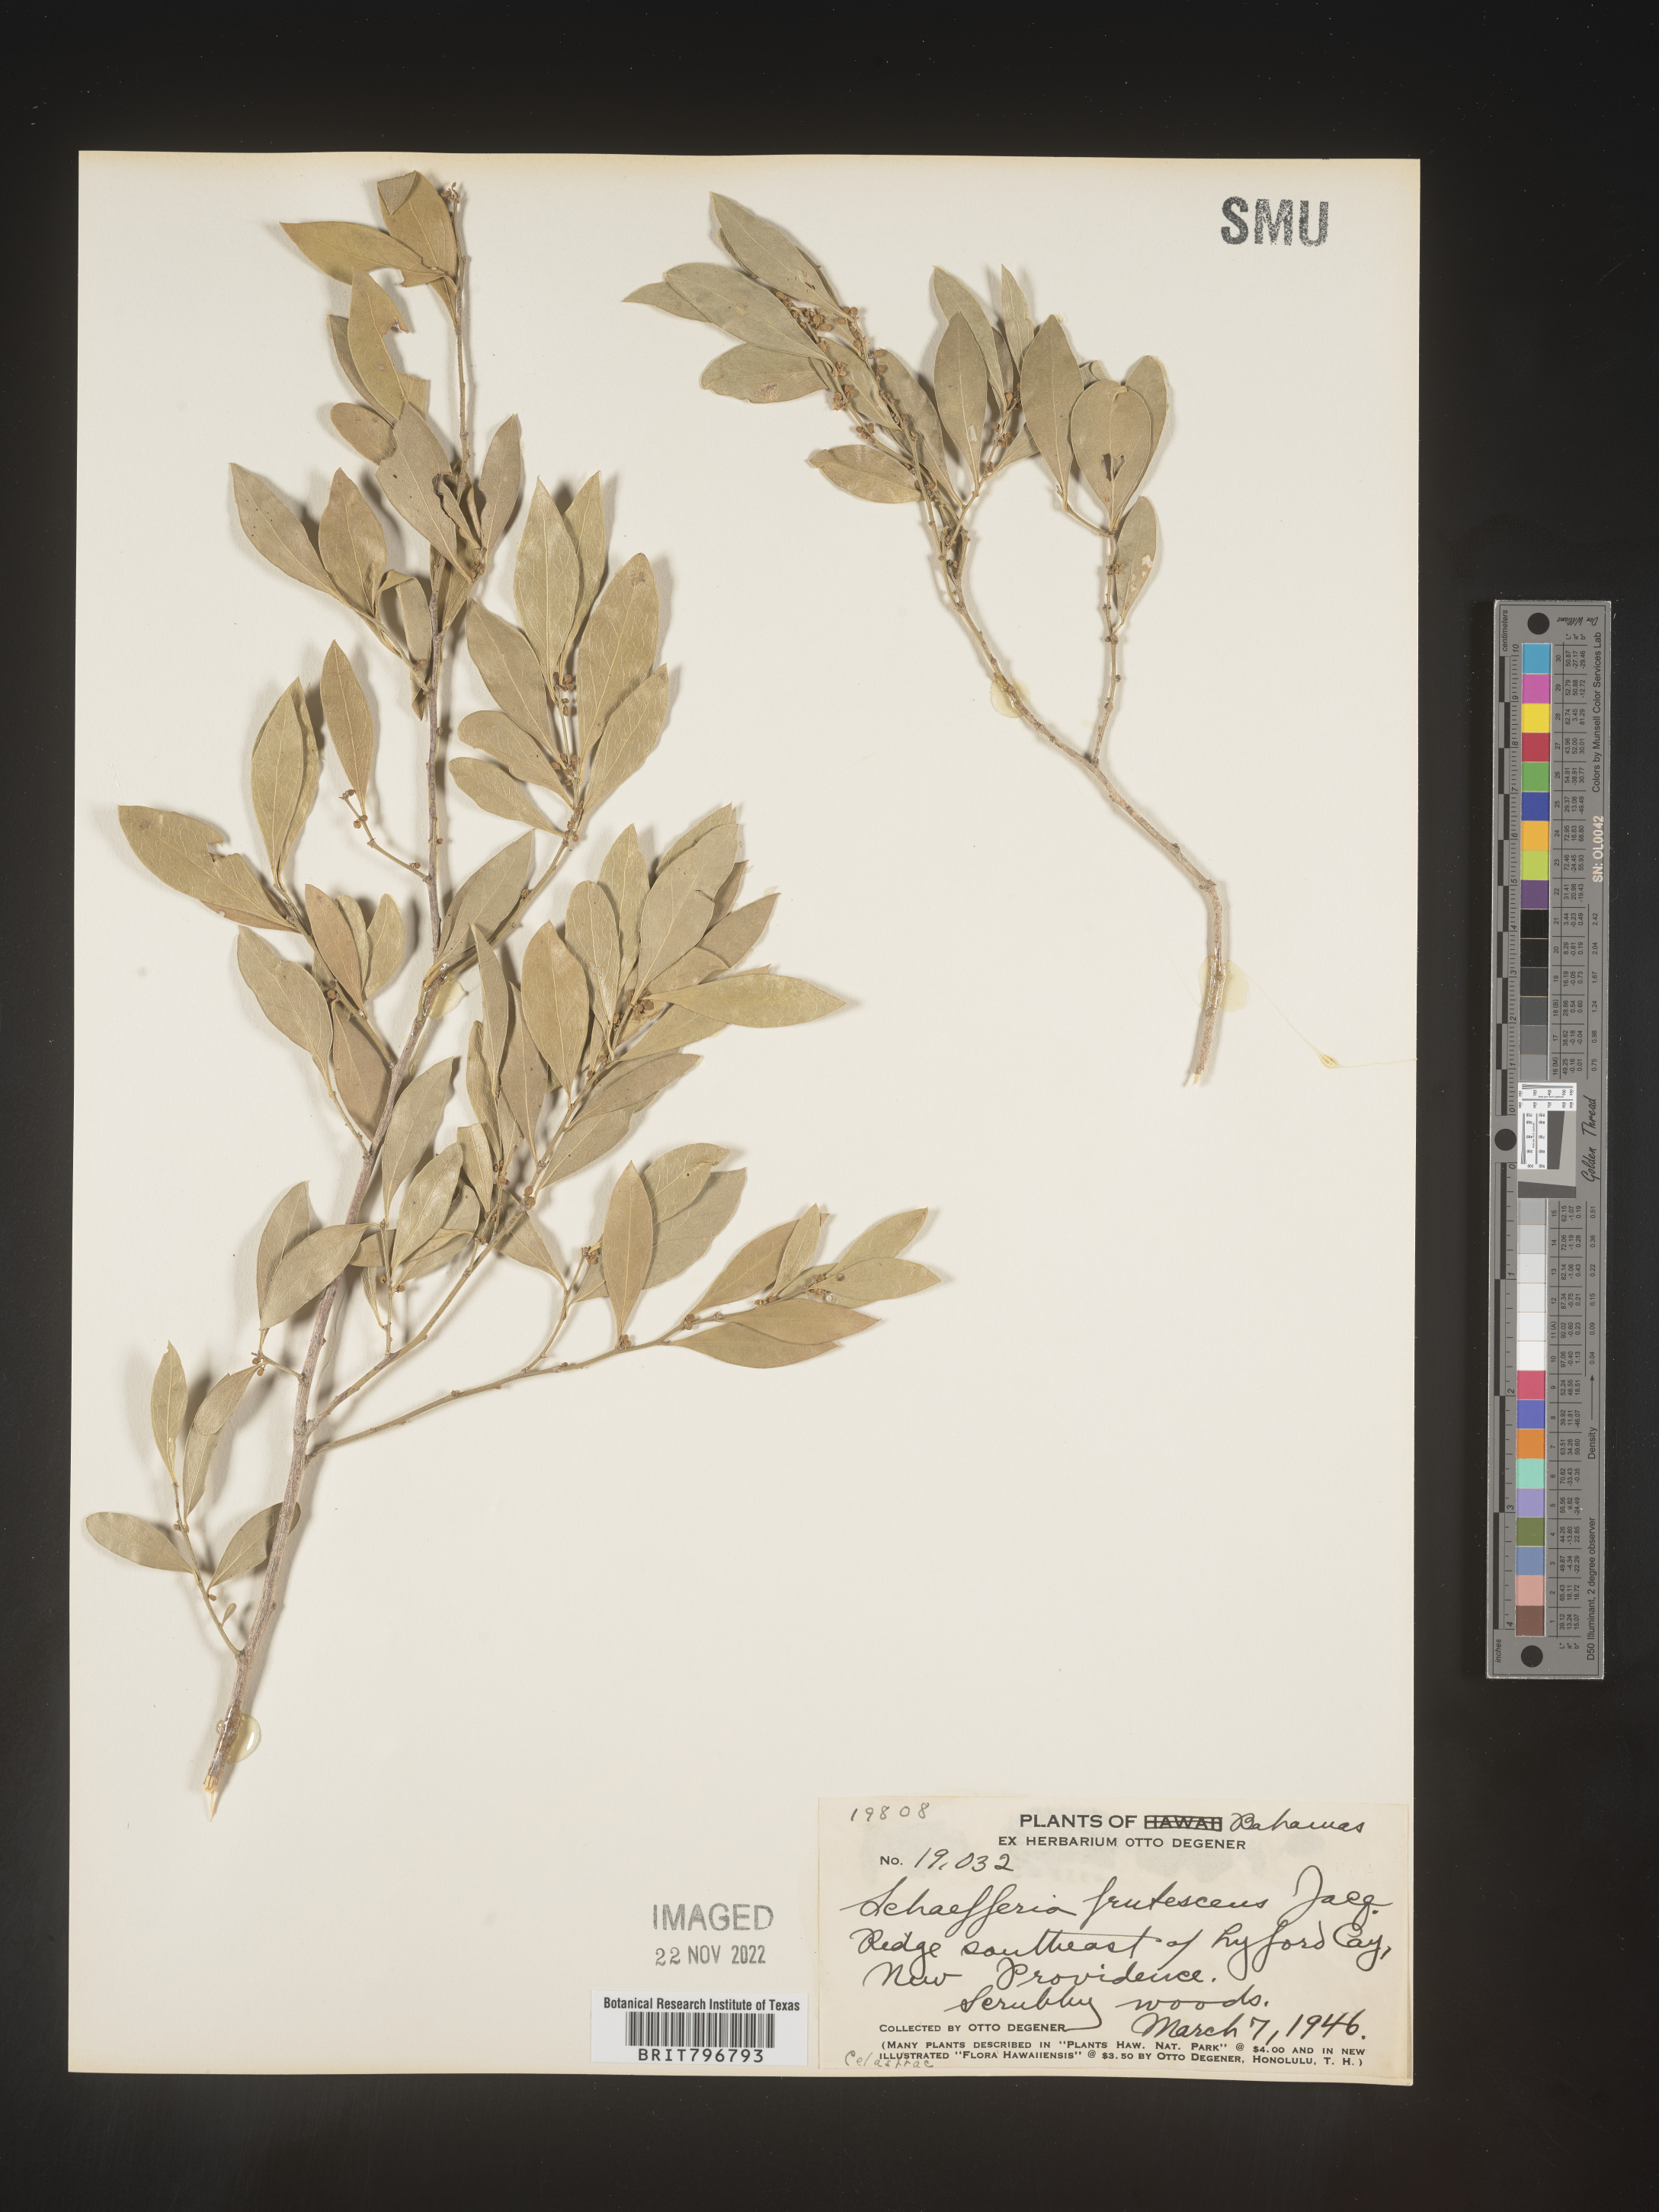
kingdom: Plantae
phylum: Tracheophyta
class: Magnoliopsida
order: Celastrales
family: Celastraceae
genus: Schaefferia
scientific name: Schaefferia
